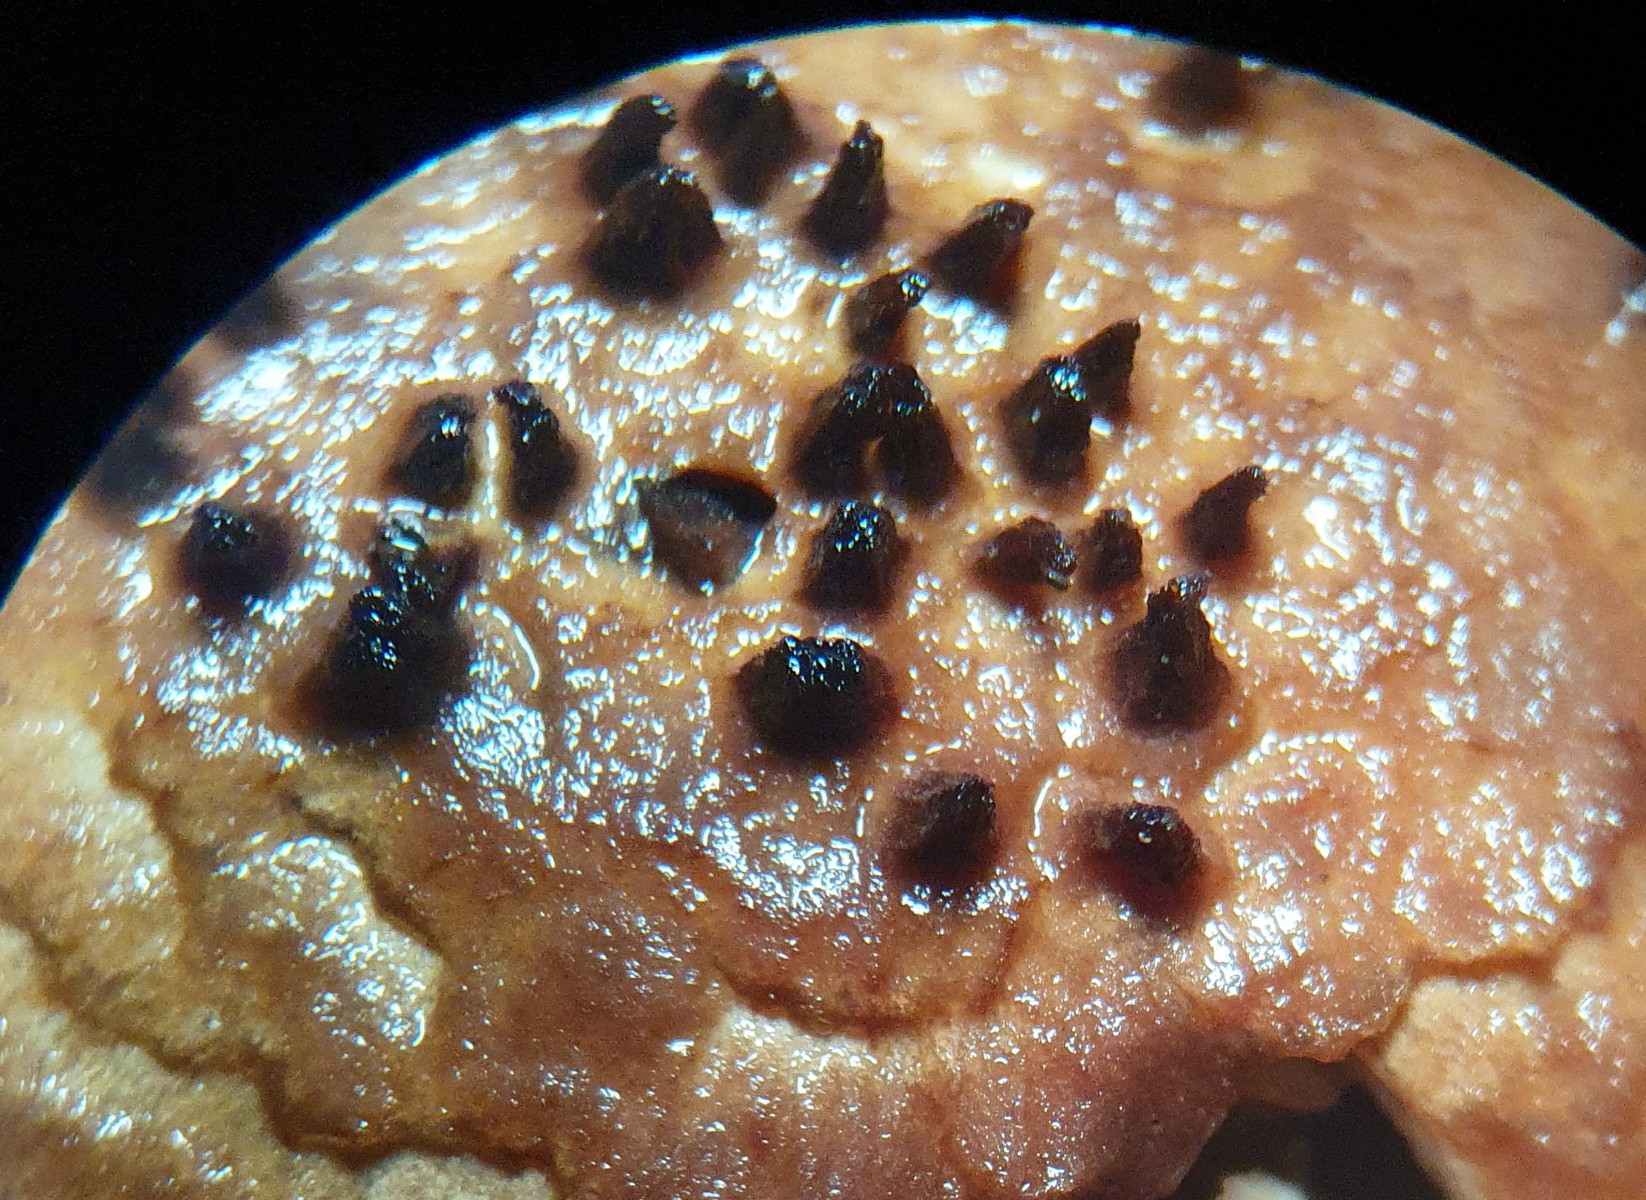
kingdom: Fungi
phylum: Basidiomycota
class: Agaricomycetes
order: Agaricales
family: Agaricaceae
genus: Echinoderma
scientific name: Echinoderma echinaceum
